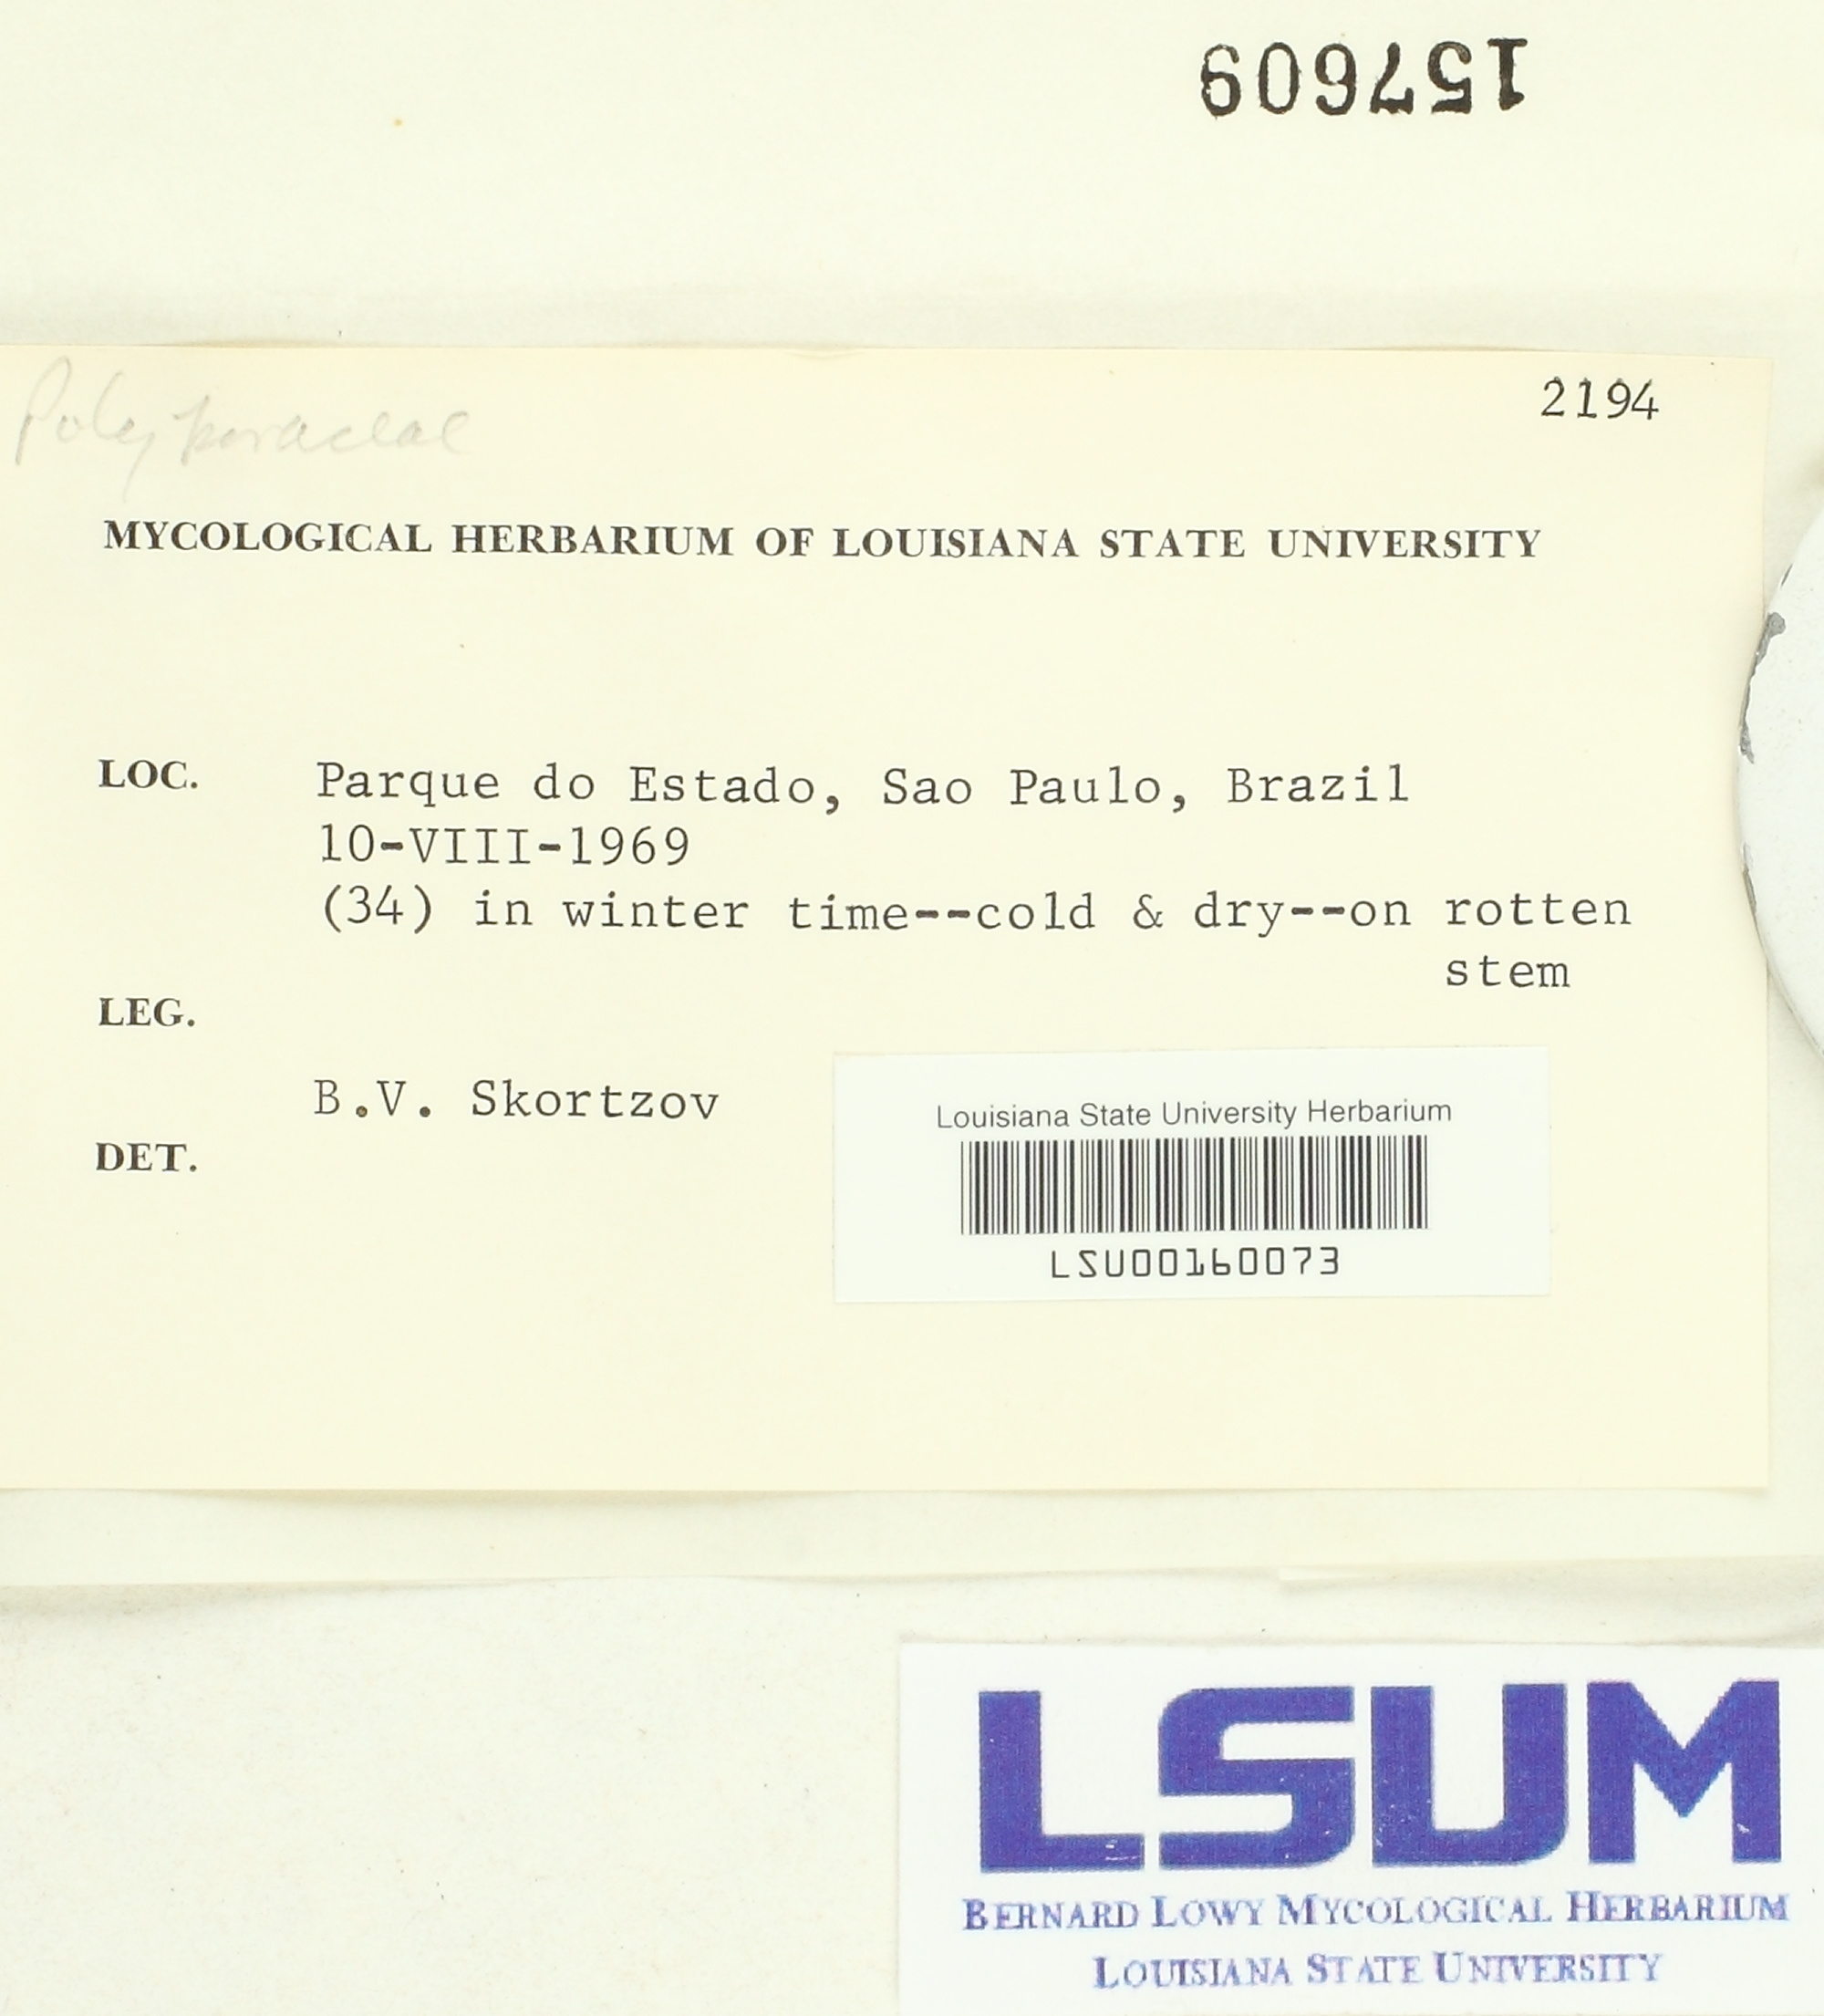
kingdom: Fungi
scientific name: Fungi
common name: Fungi
